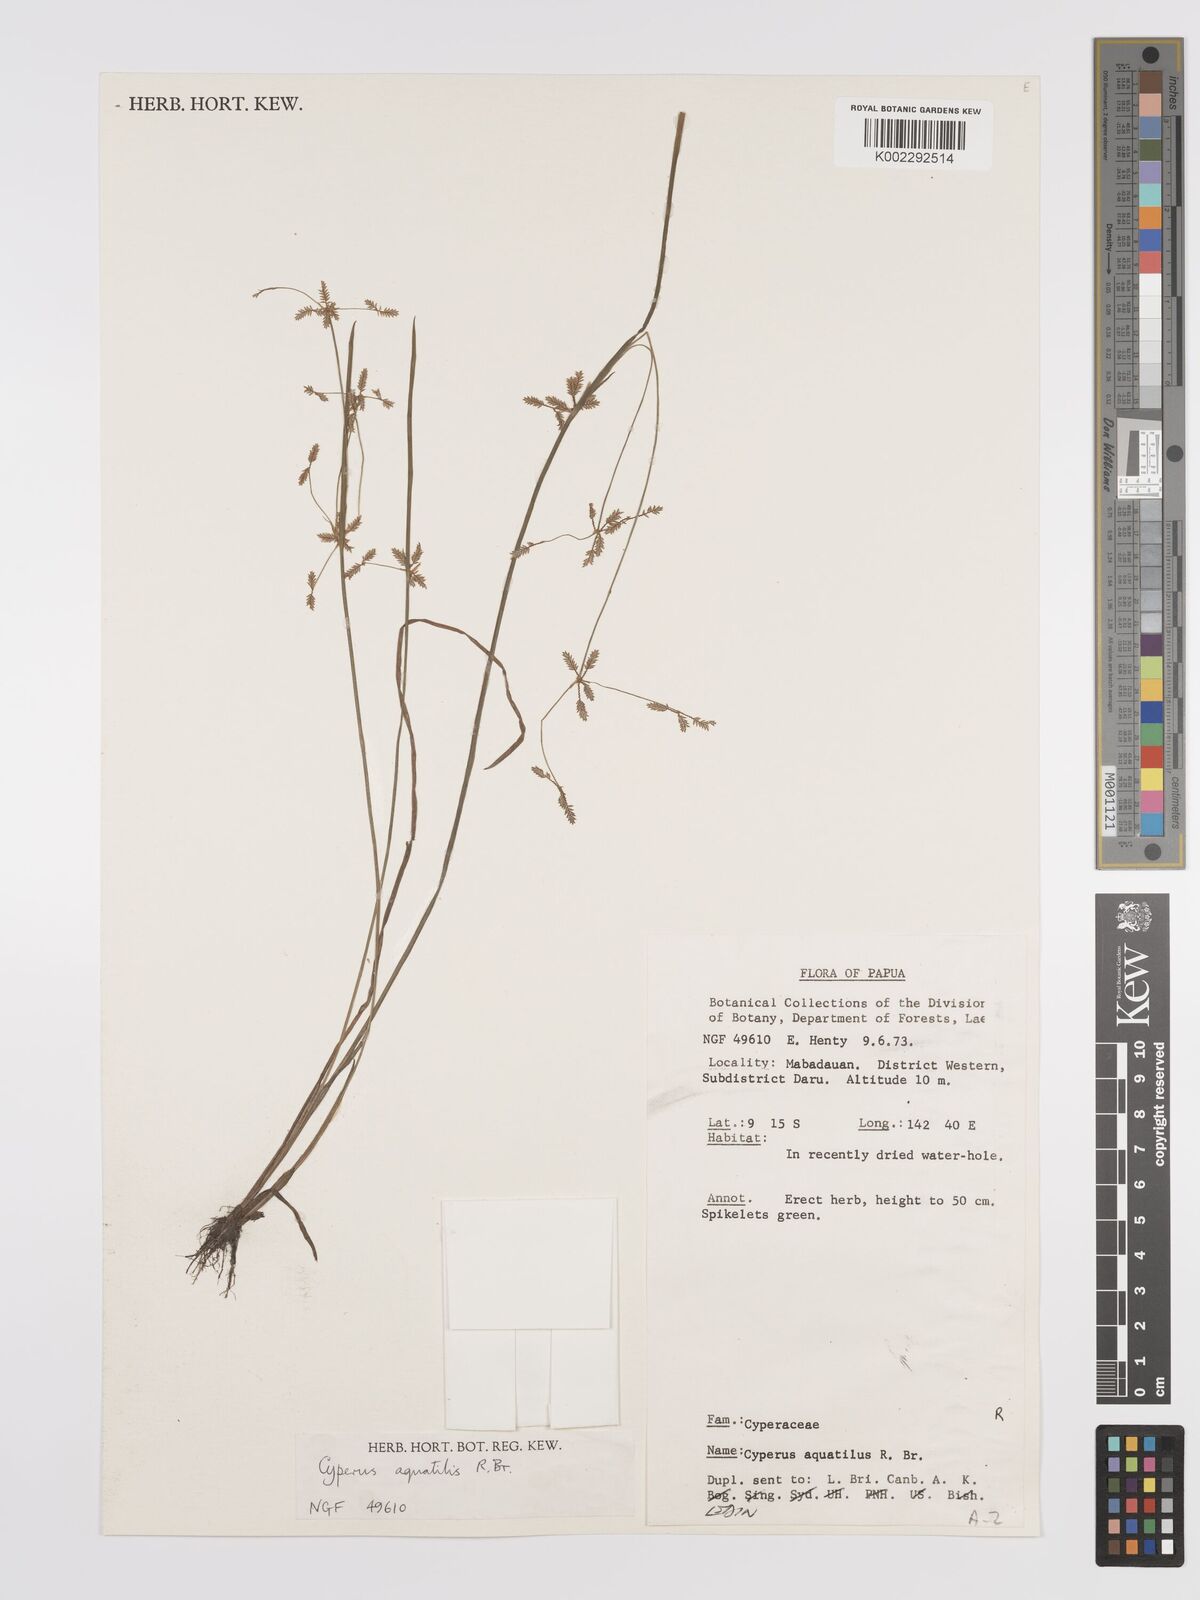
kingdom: Plantae
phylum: Tracheophyta
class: Liliopsida
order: Poales
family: Cyperaceae
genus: Cyperus
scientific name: Cyperus aquatilis
